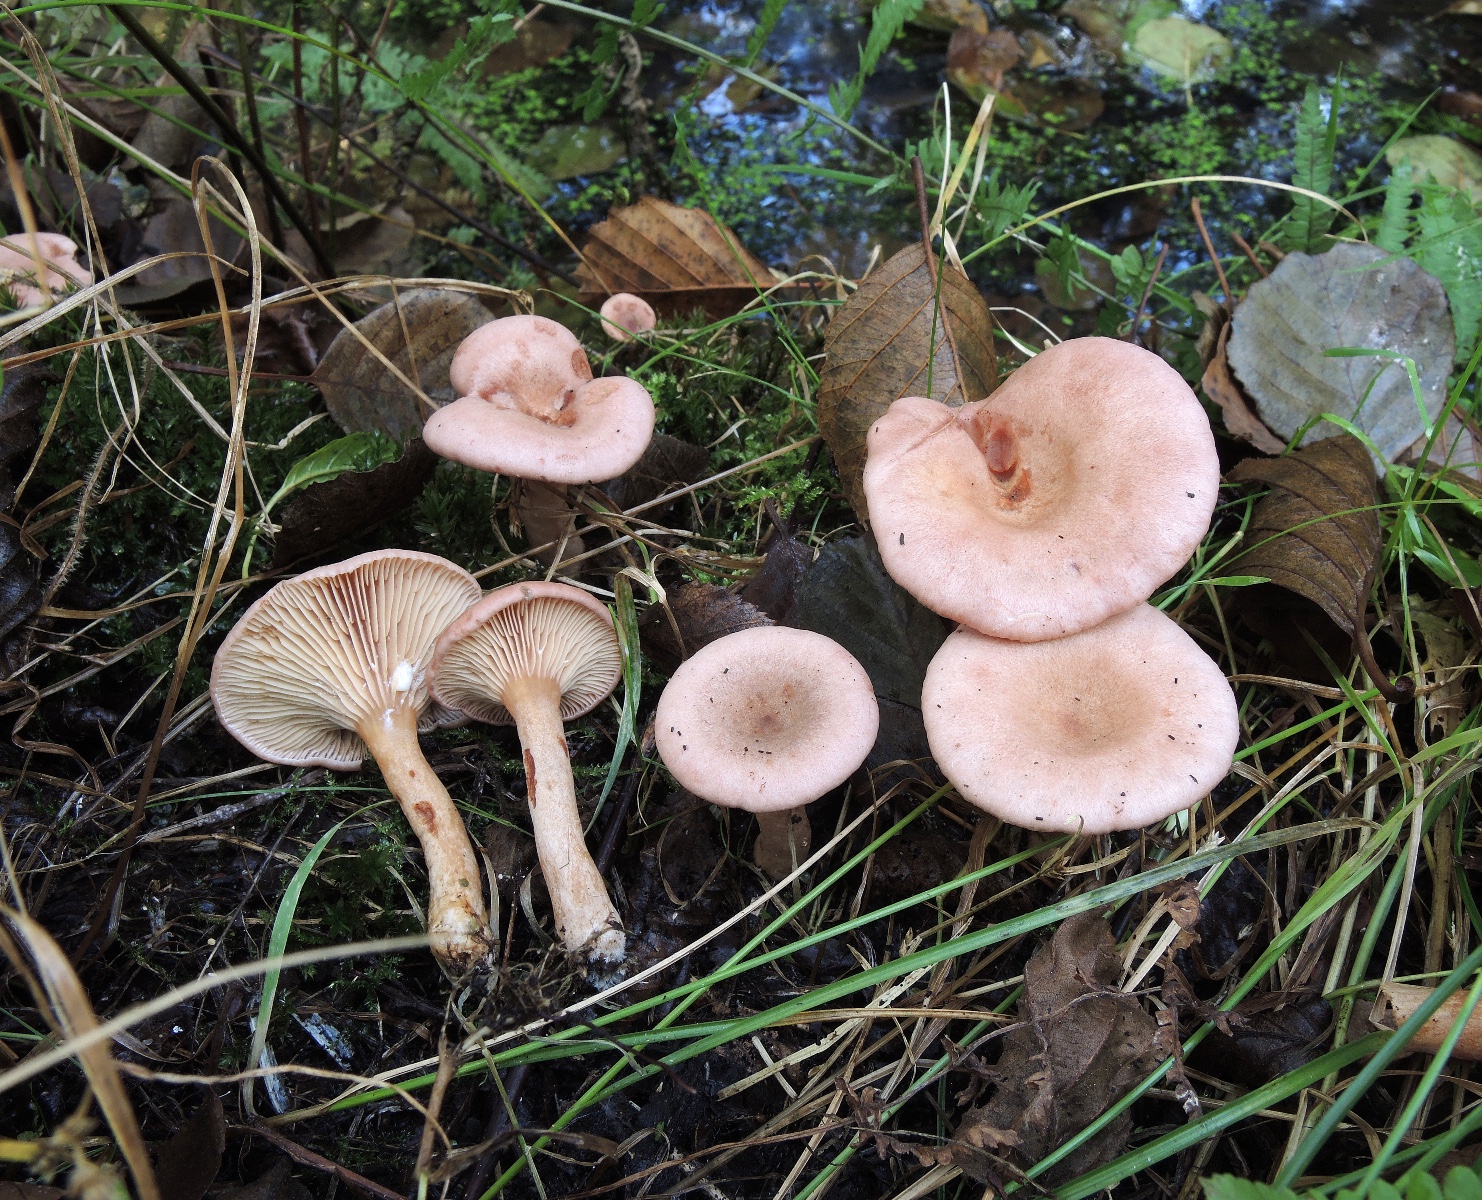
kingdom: Fungi
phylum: Basidiomycota
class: Agaricomycetes
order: Russulales
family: Russulaceae
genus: Lactarius
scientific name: Lactarius lilacinus
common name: lilla mælkehat
